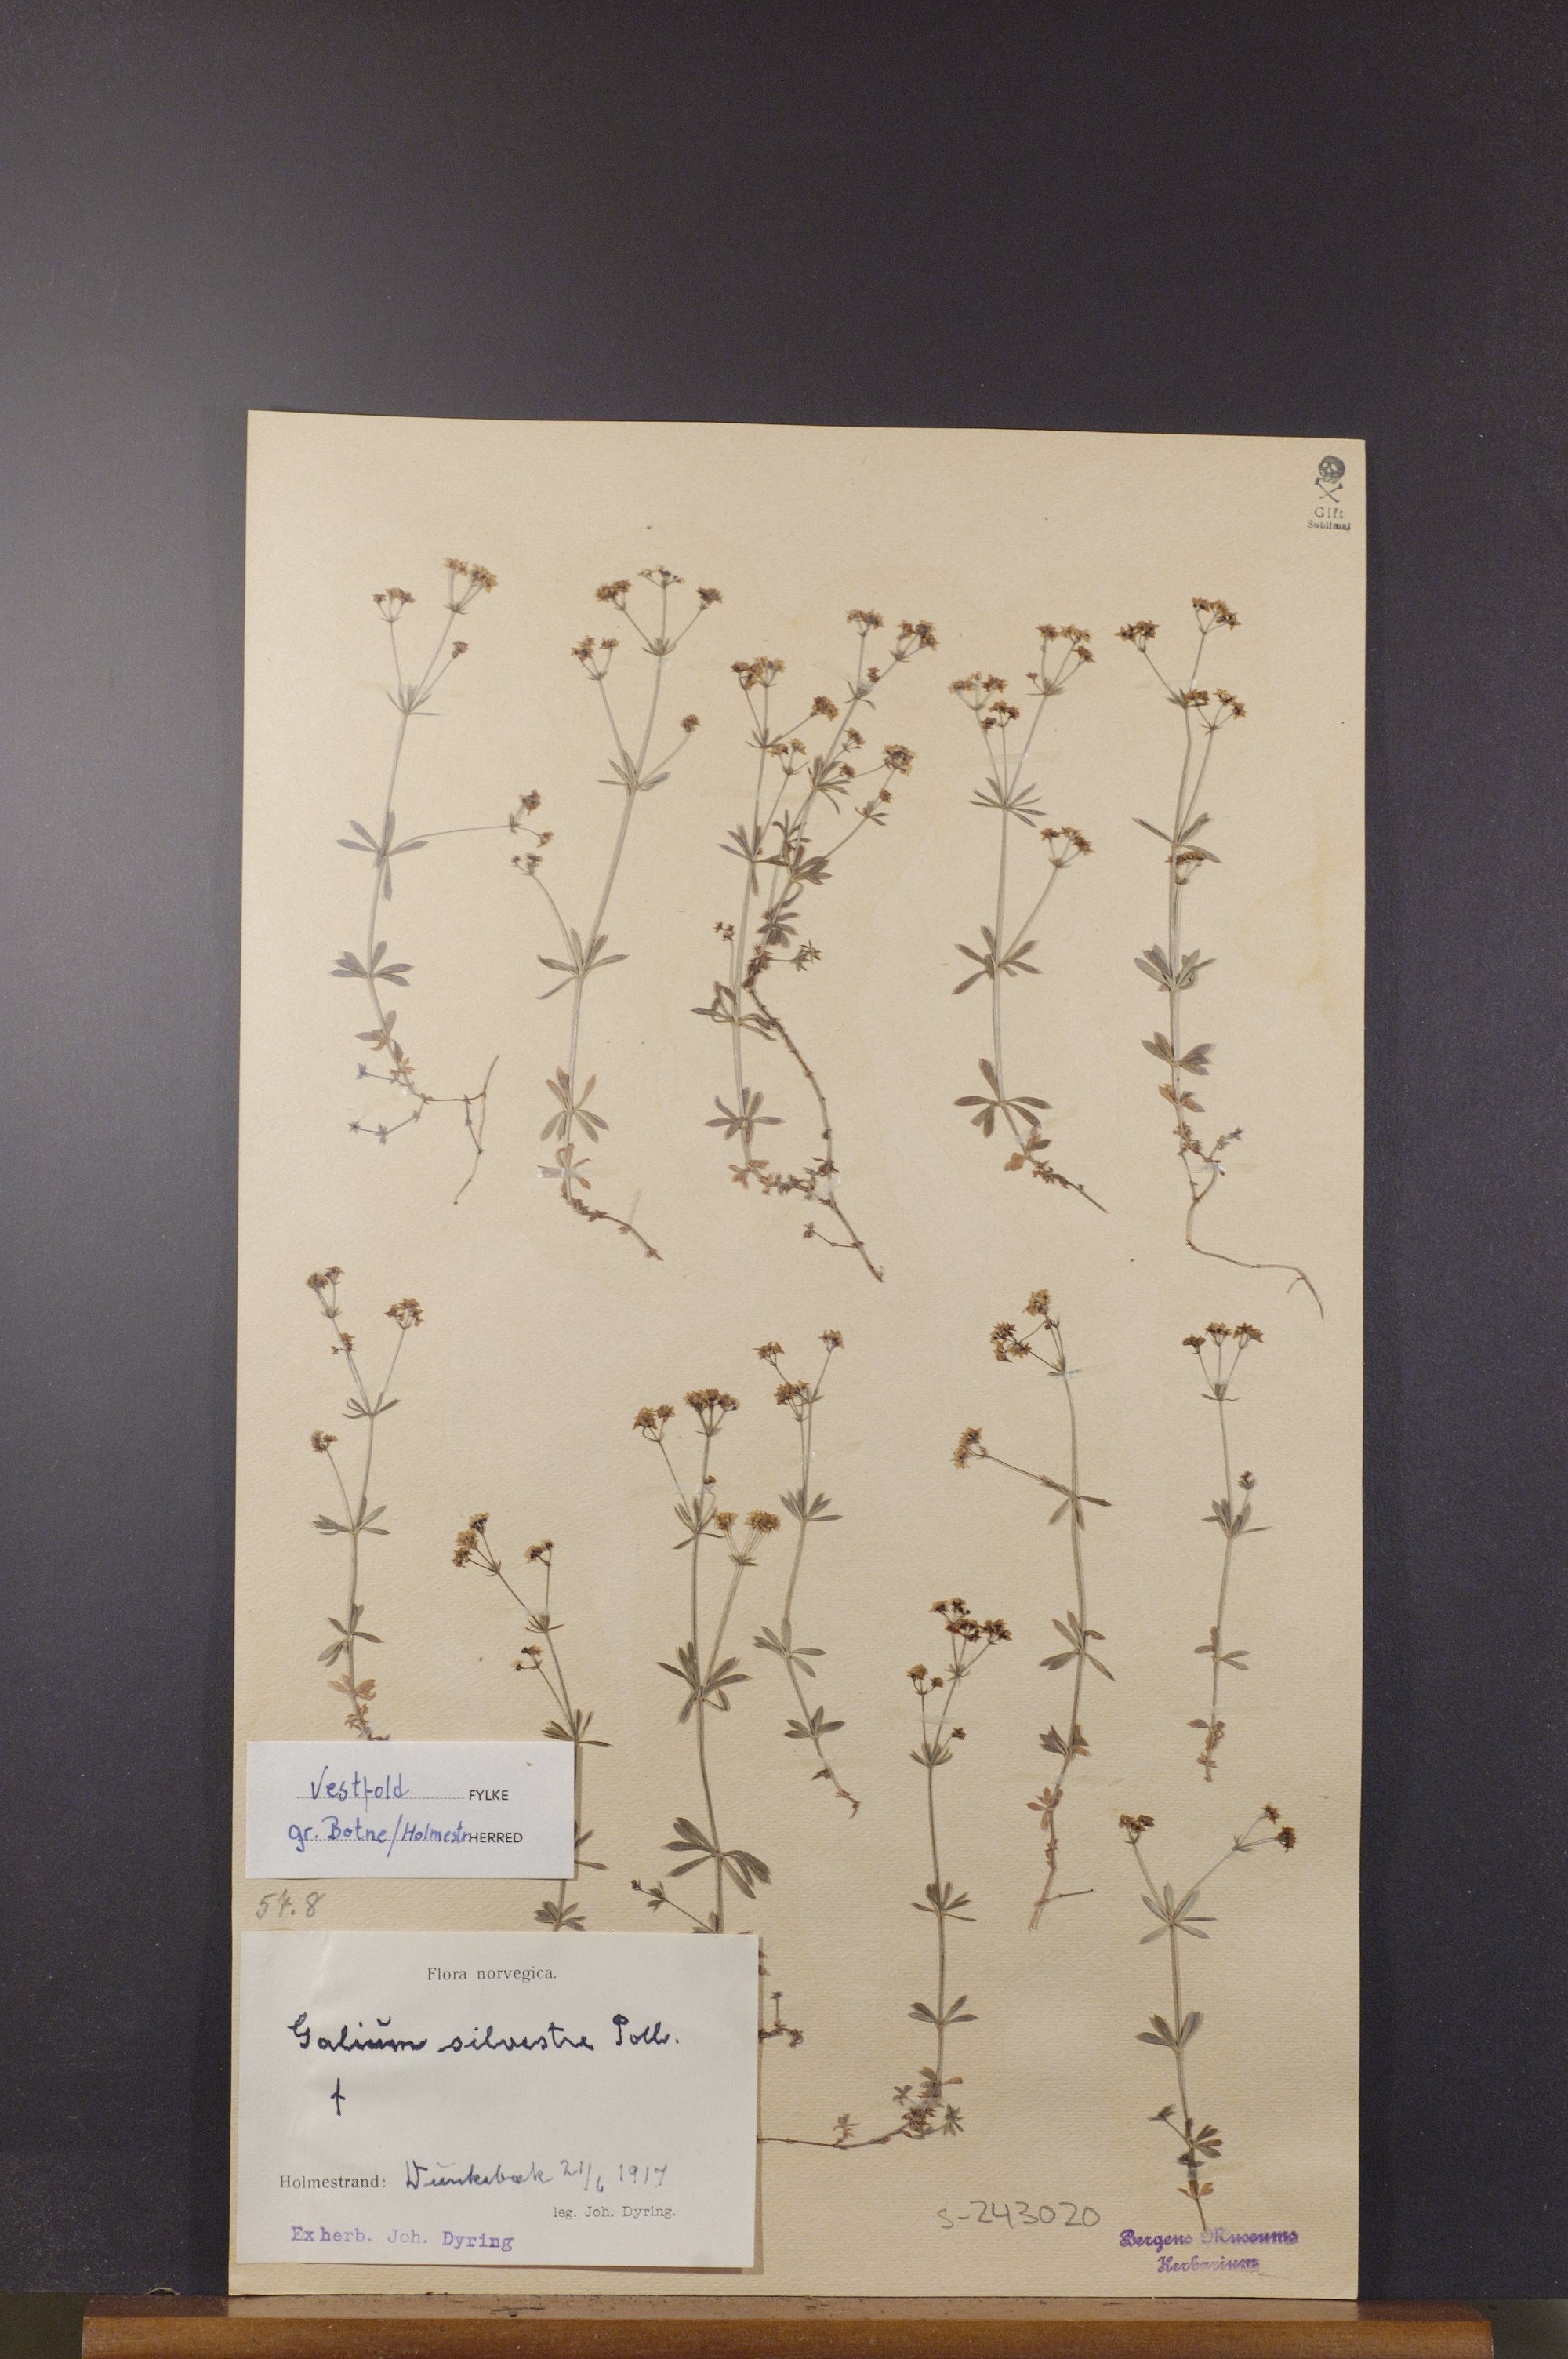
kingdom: Plantae
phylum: Tracheophyta
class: Magnoliopsida
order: Gentianales
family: Rubiaceae
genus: Galium
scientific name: Galium pumilum
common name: Slender bedstraw
